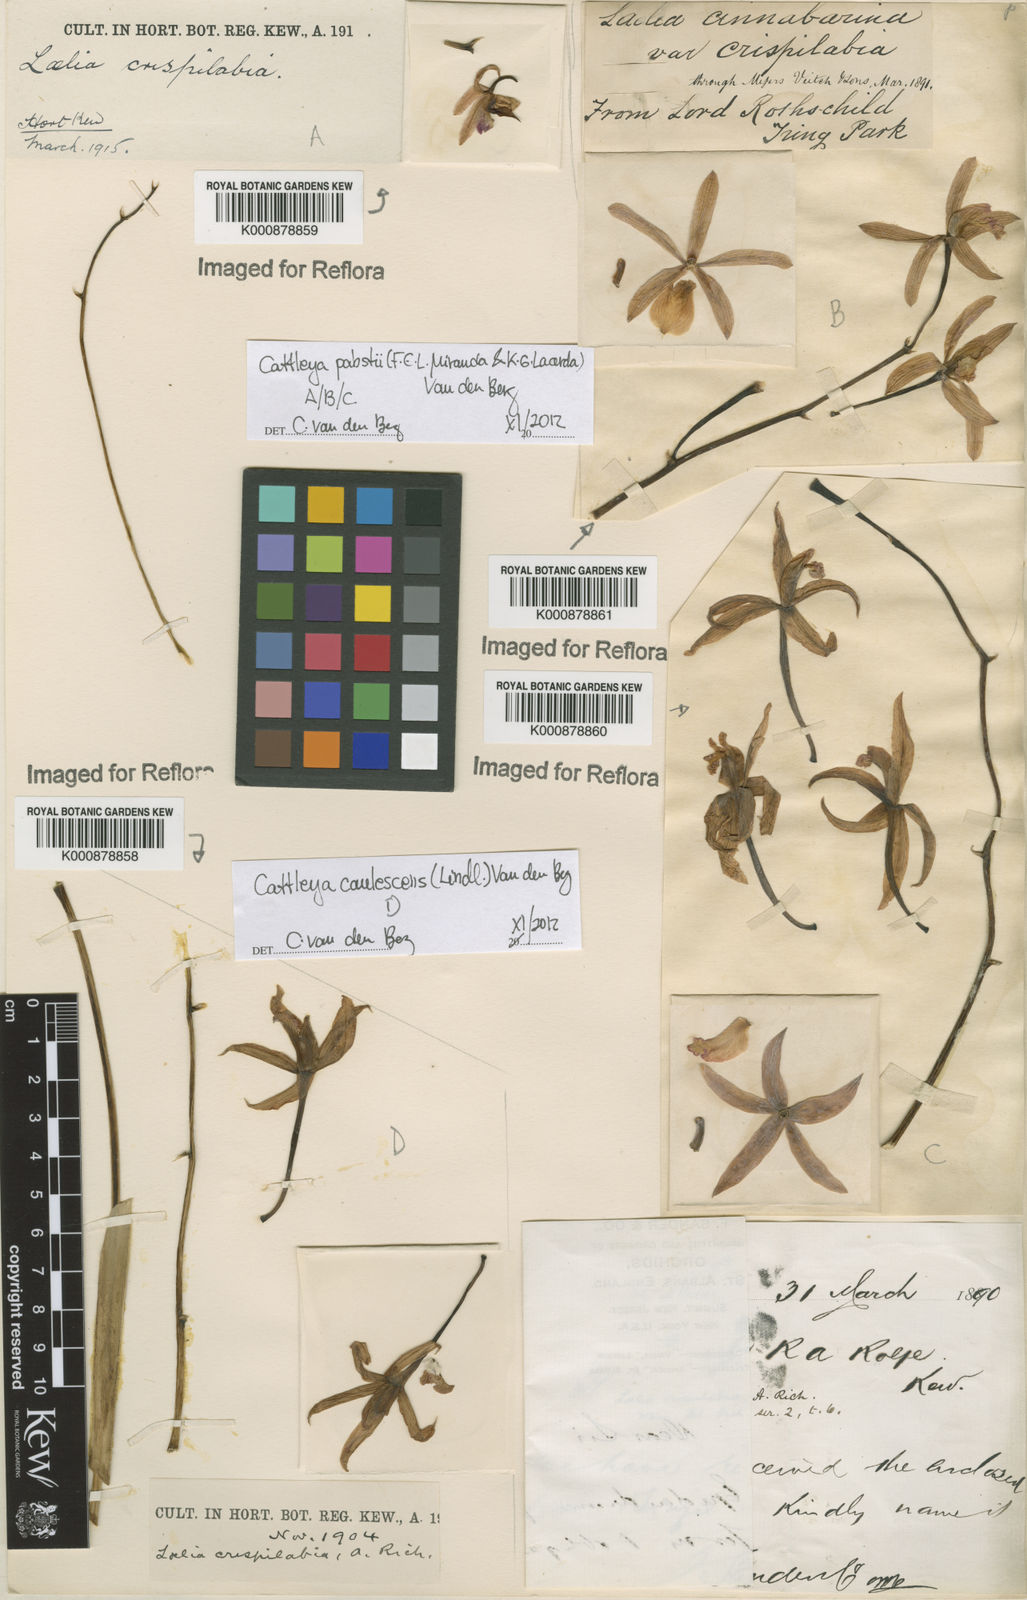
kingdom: Plantae
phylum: Tracheophyta
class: Liliopsida
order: Asparagales
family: Orchidaceae
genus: Cattleya
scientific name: Cattleya caulescens
